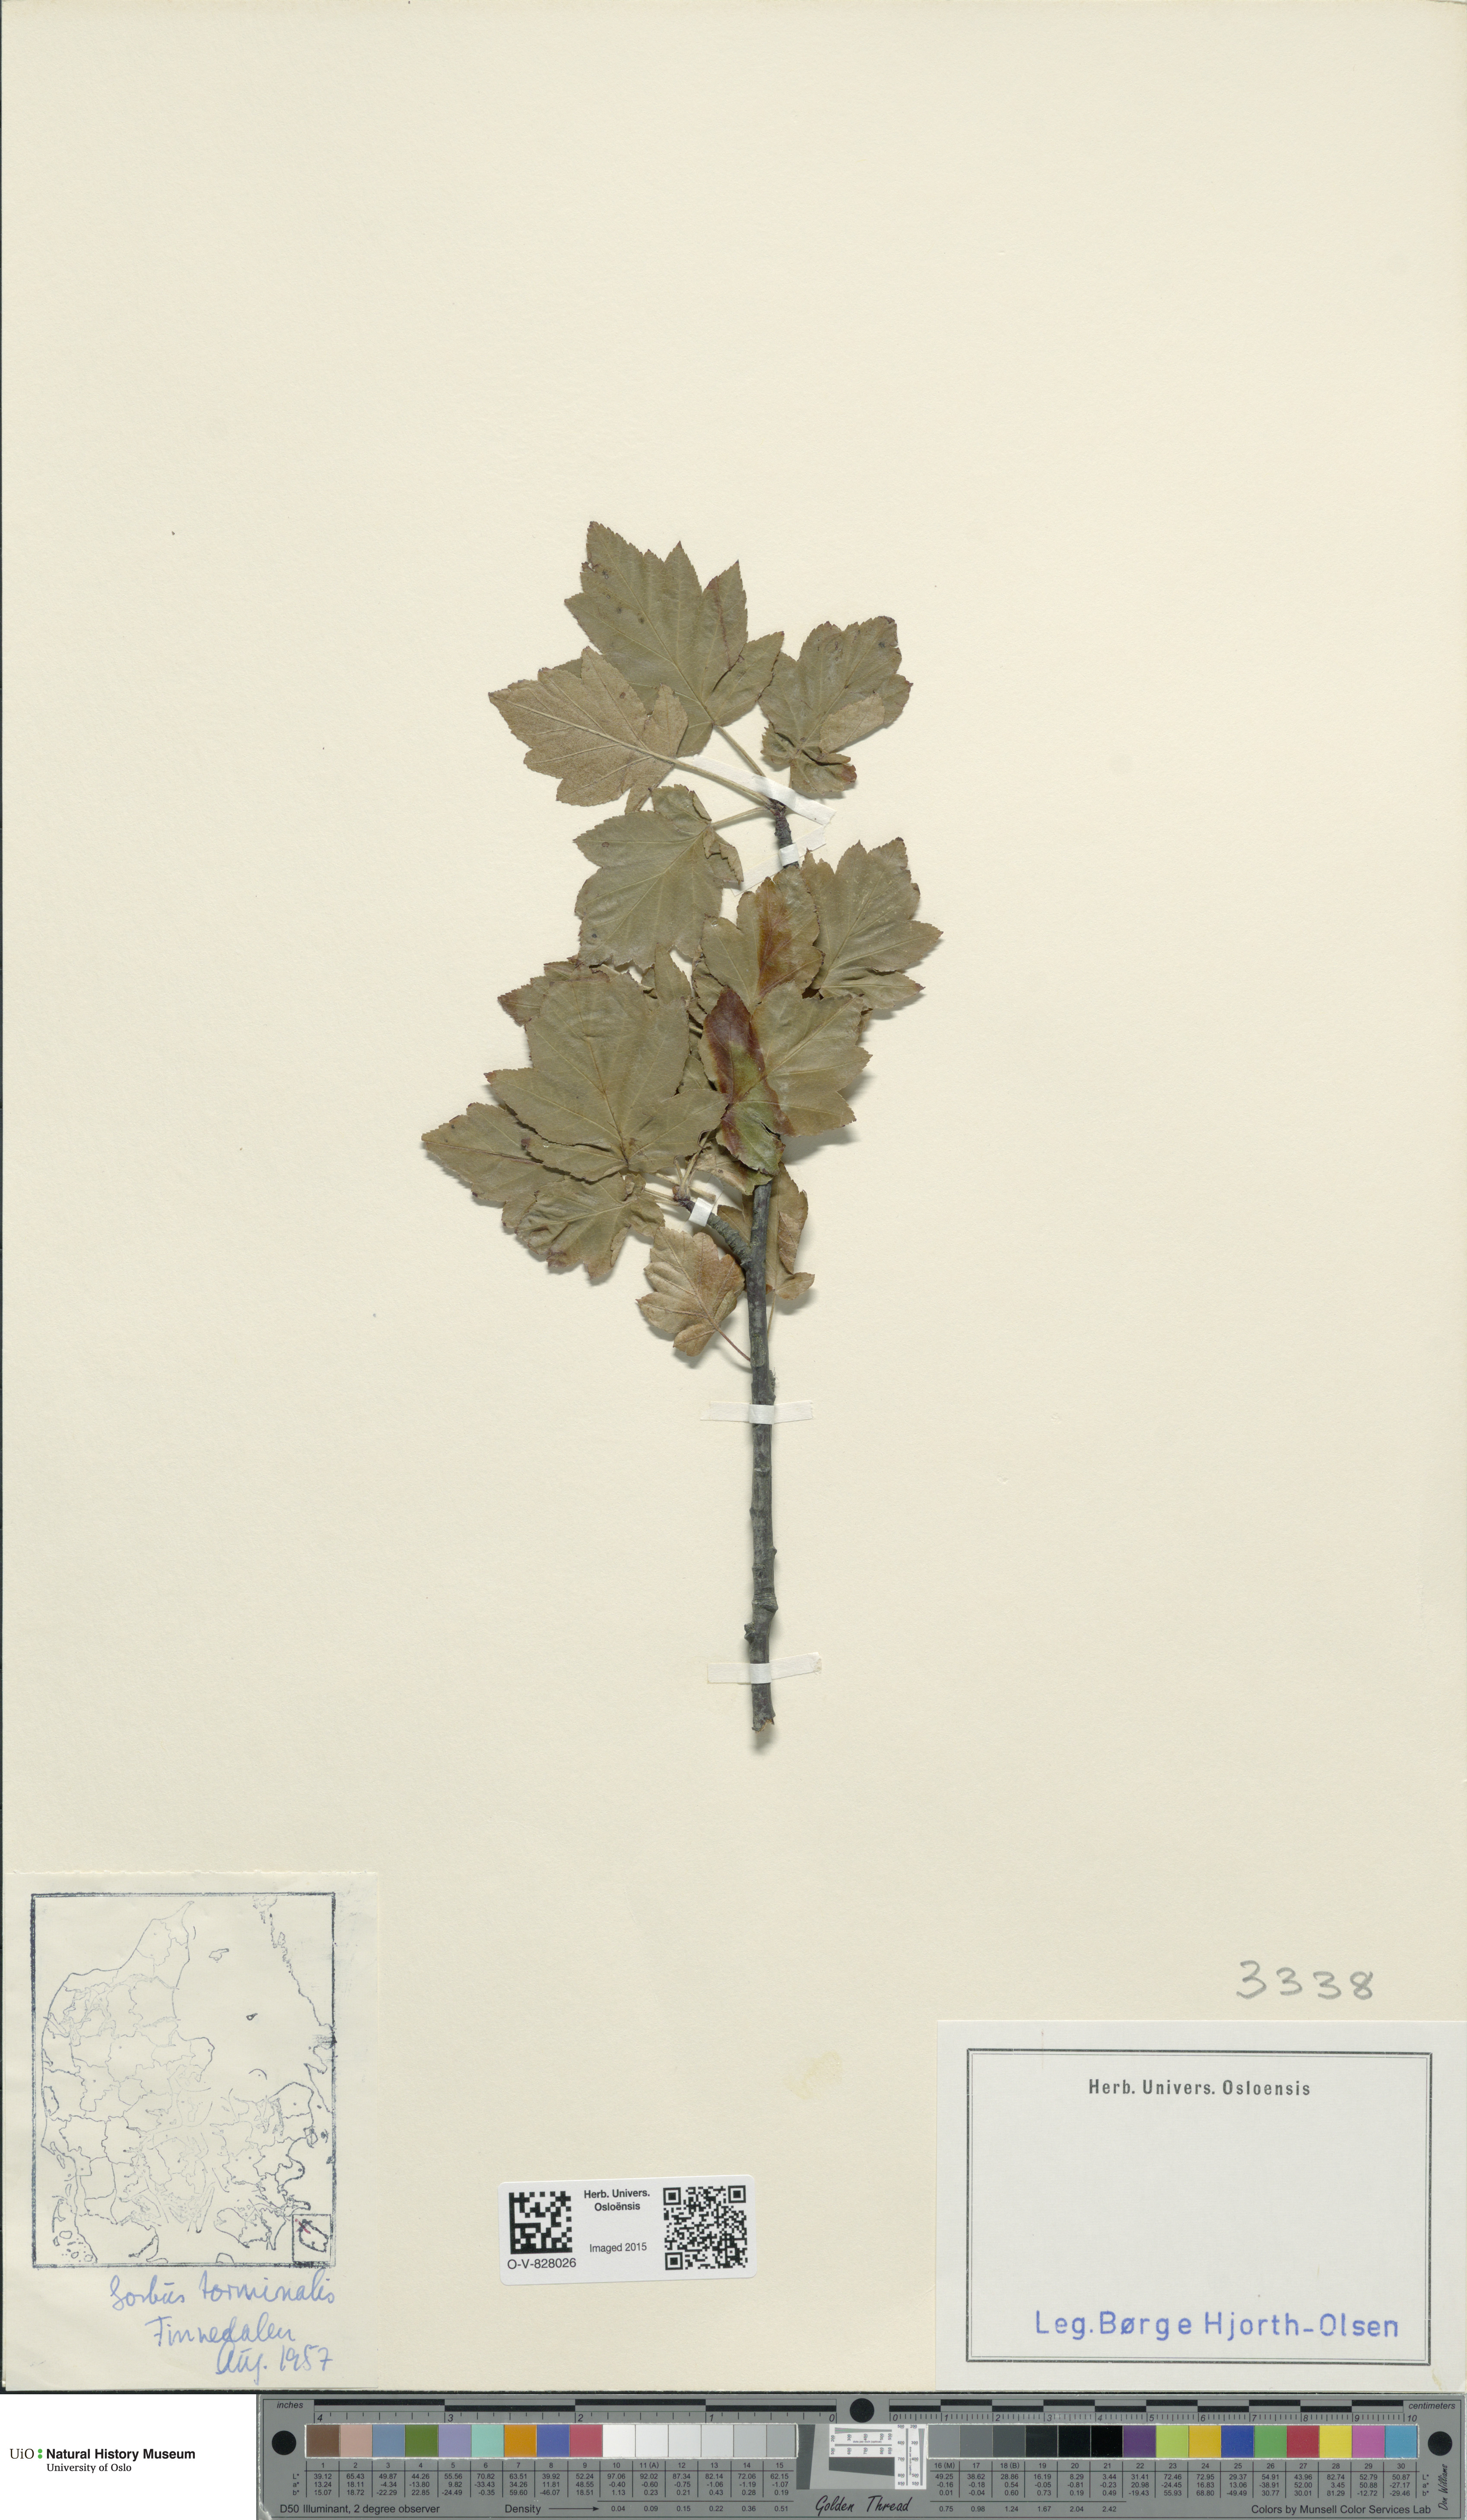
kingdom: Plantae
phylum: Tracheophyta
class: Magnoliopsida
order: Rosales
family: Rosaceae
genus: Torminalis
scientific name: Torminalis glaberrima
